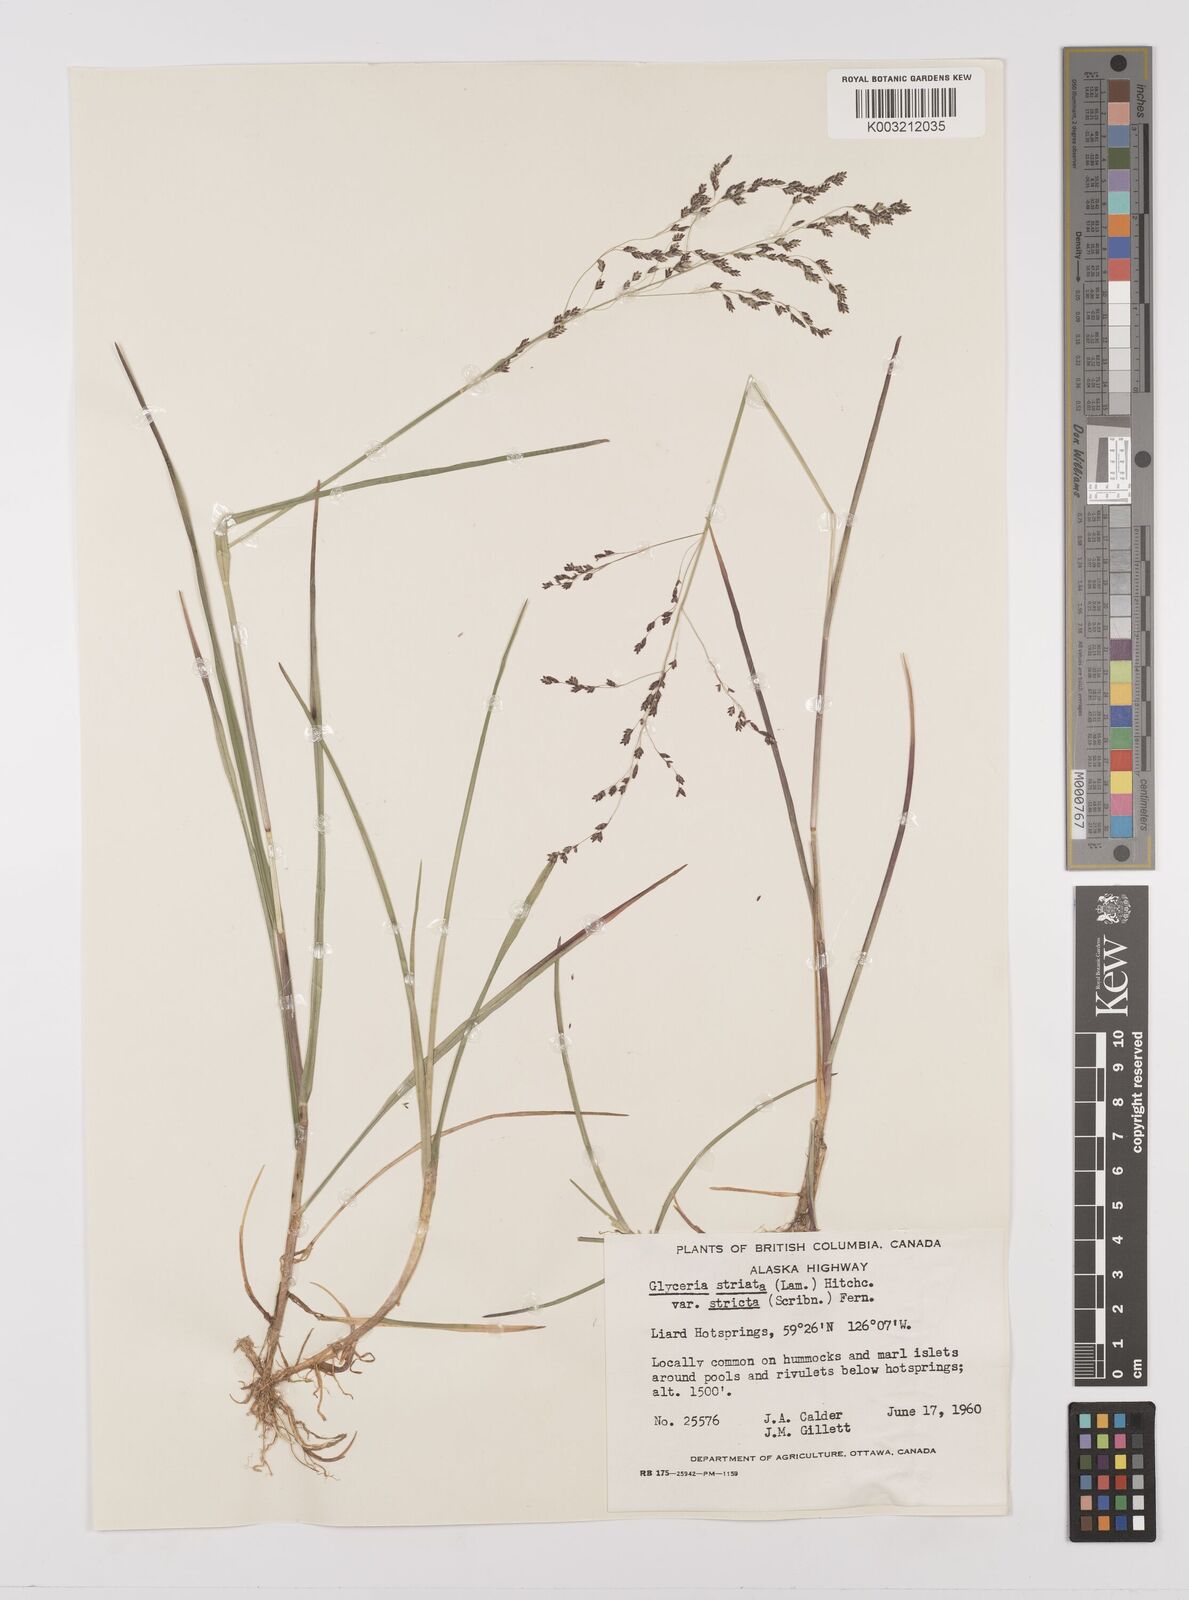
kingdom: Plantae
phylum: Tracheophyta
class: Liliopsida
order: Poales
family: Poaceae
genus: Glyceria
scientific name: Glyceria striata
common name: Fowl manna grass
